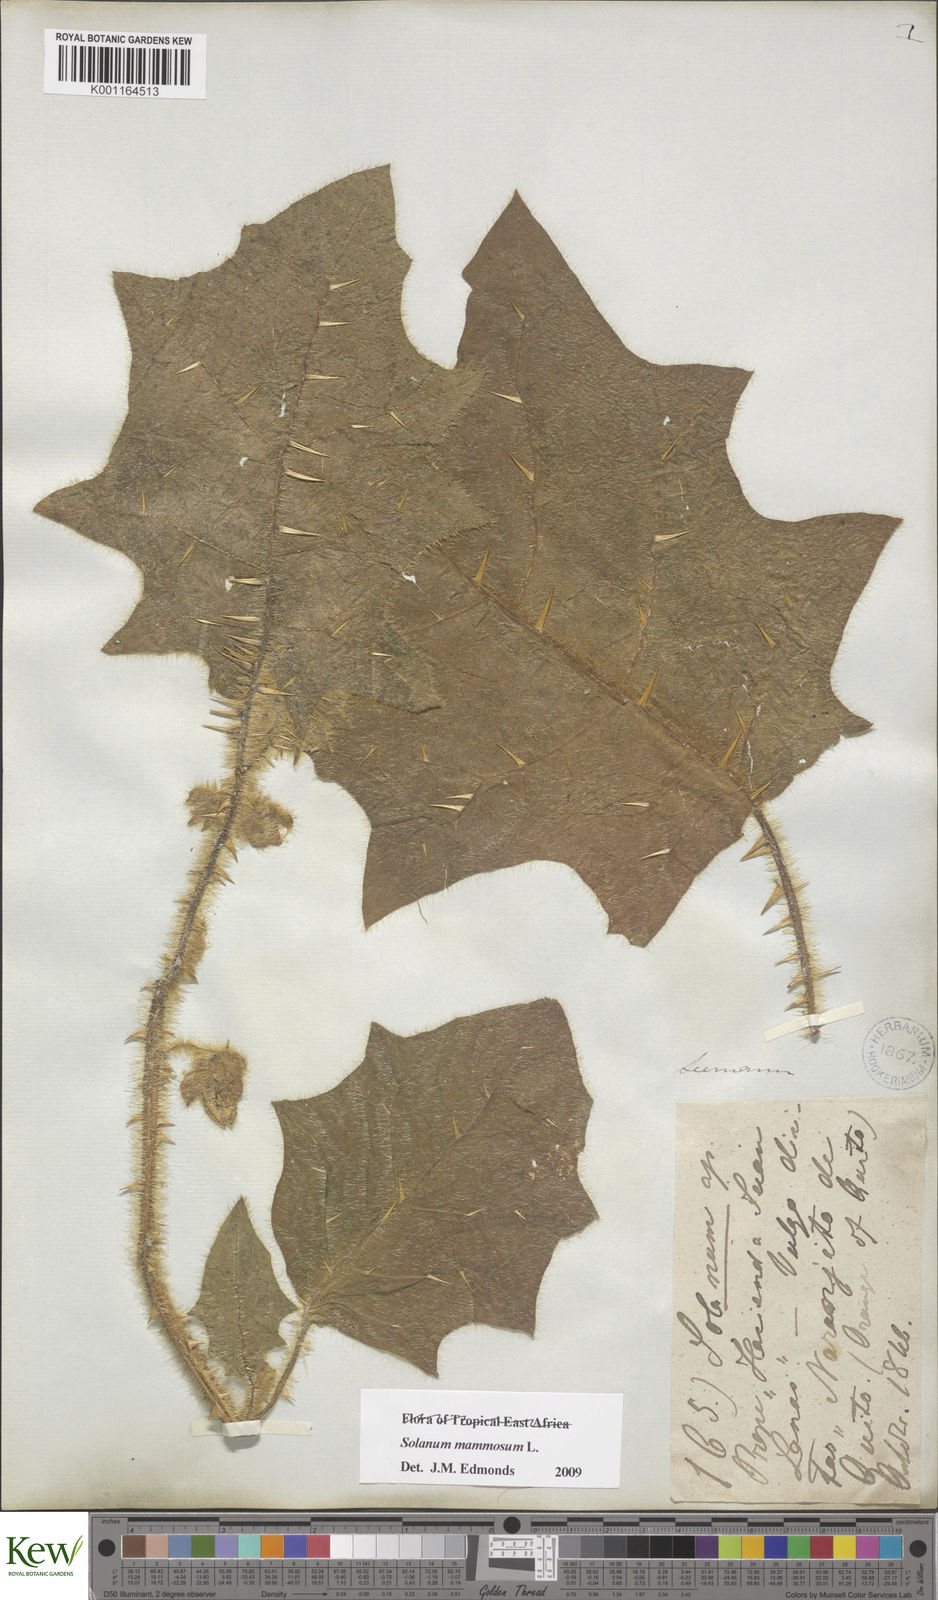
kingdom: Plantae
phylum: Tracheophyta
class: Magnoliopsida
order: Solanales
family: Solanaceae
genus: Solanum
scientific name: Solanum mammosum
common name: Nipple fruit
